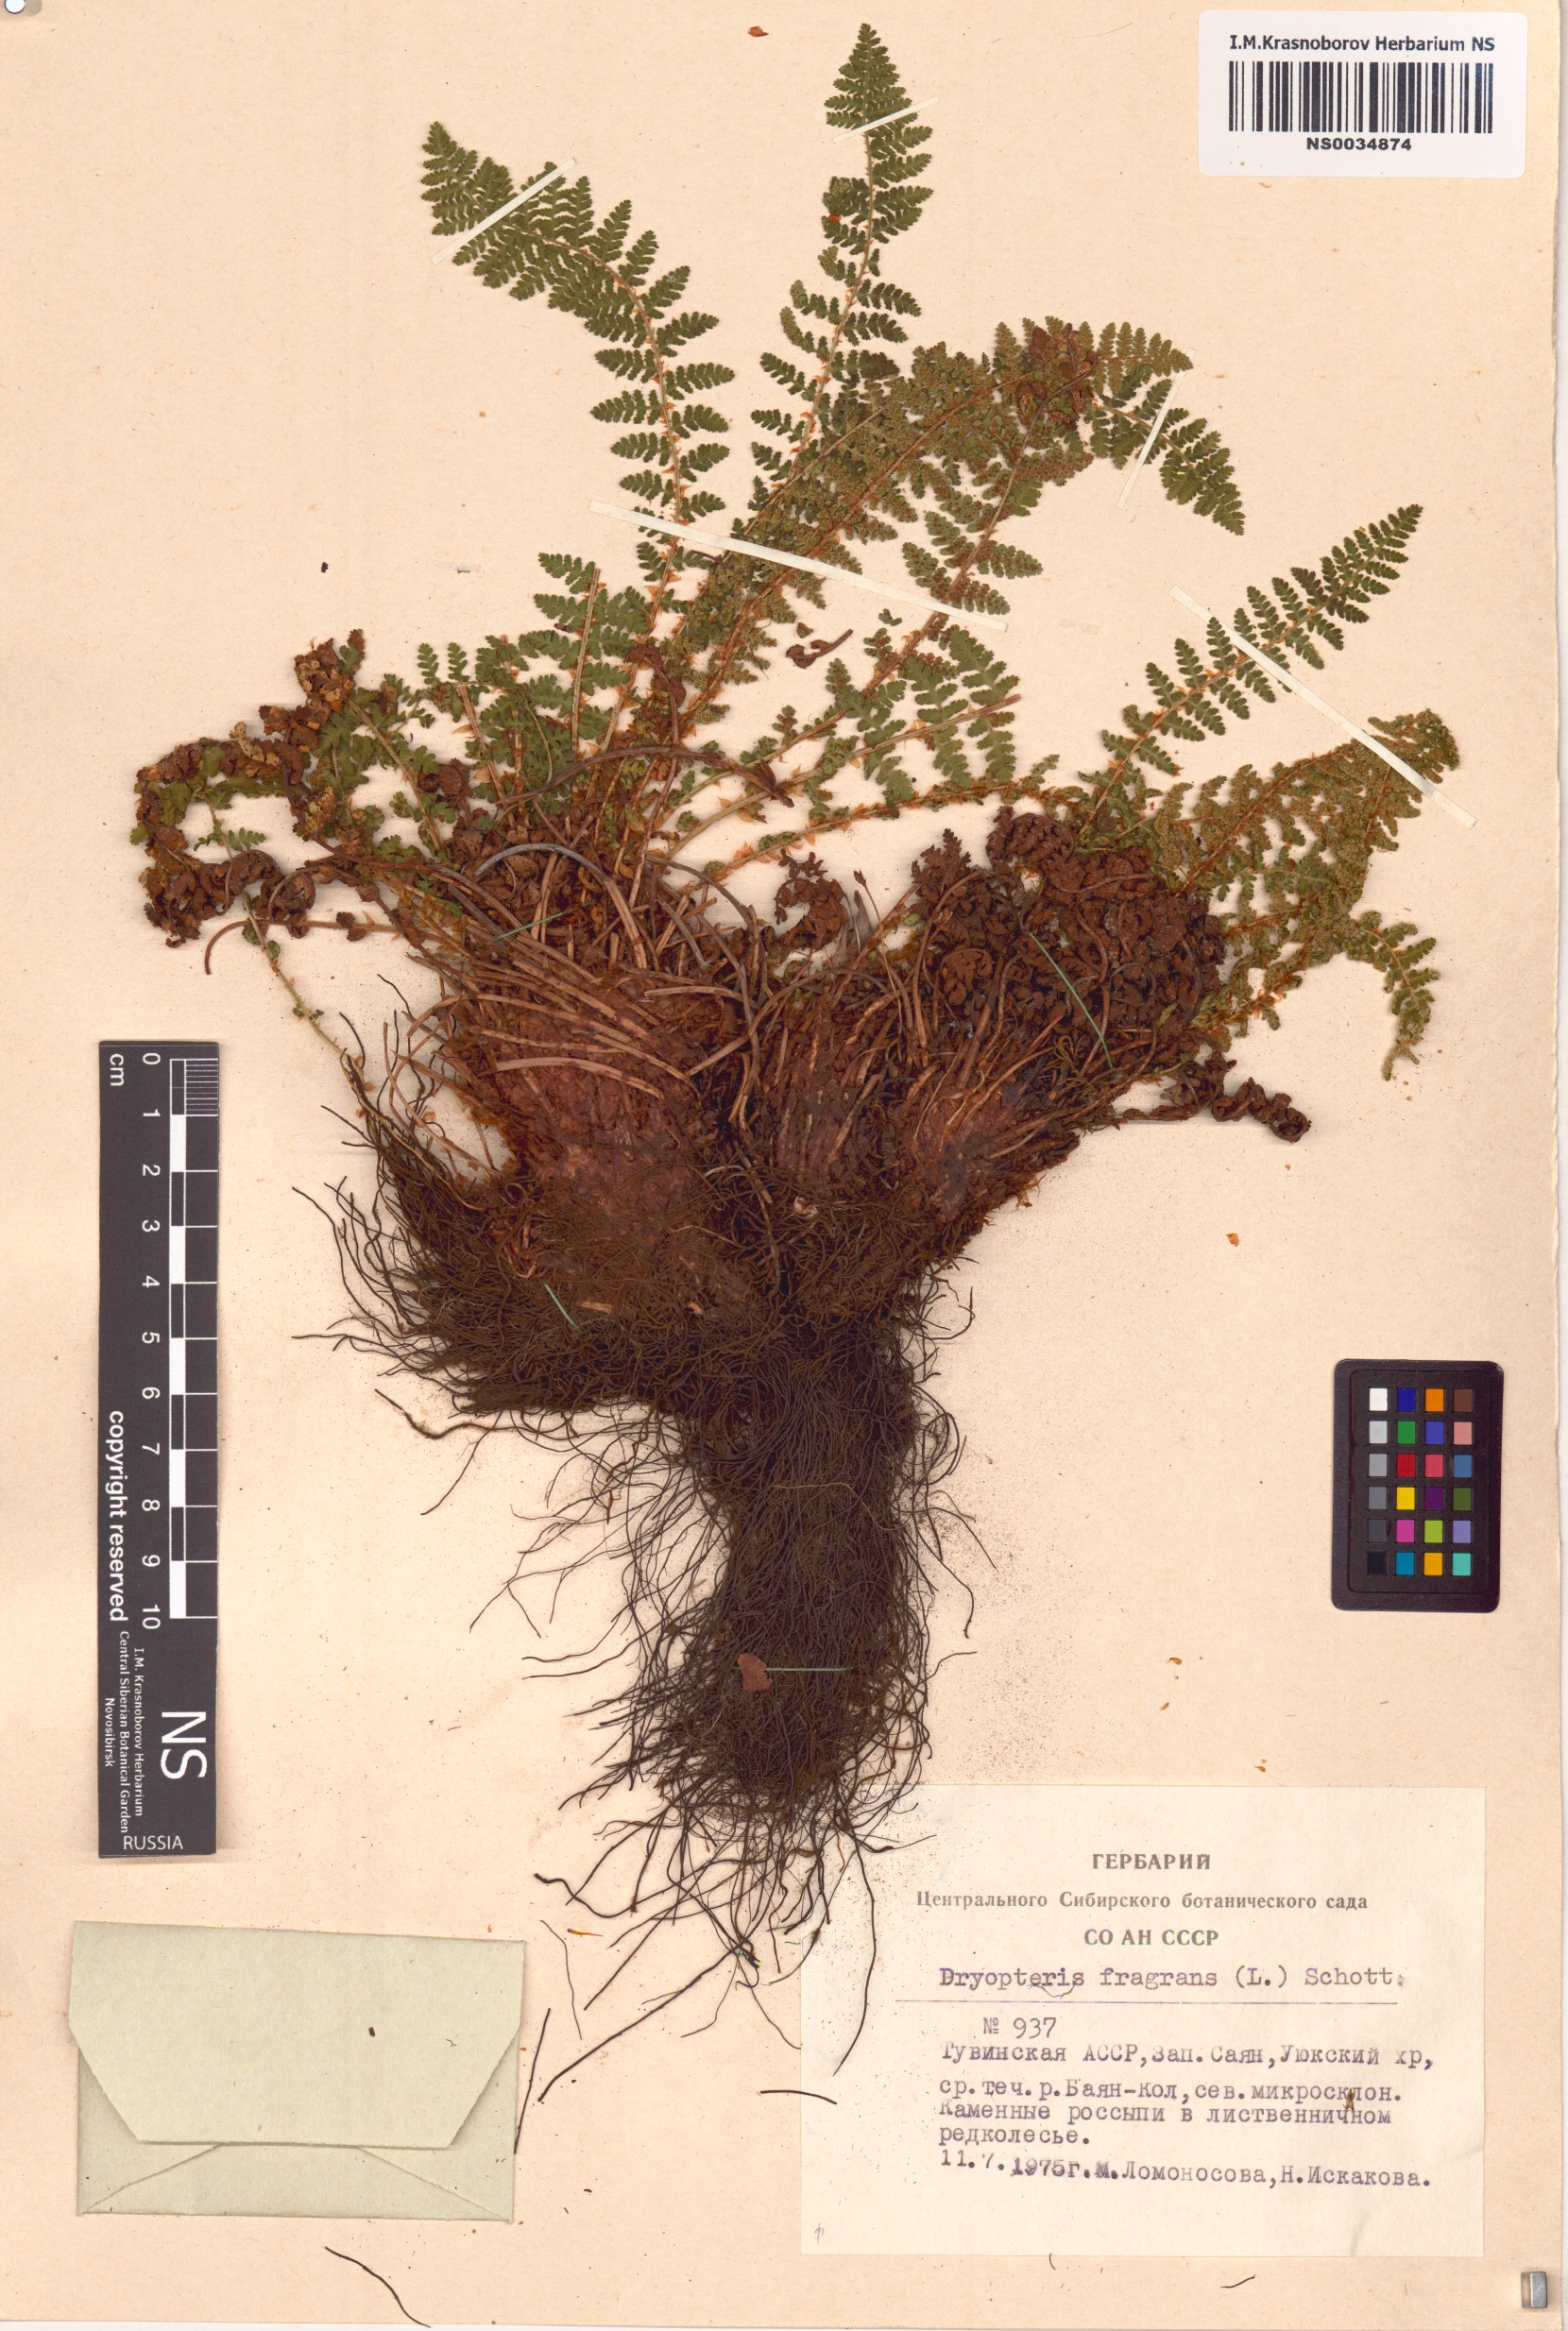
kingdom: Plantae
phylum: Tracheophyta
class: Polypodiopsida
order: Polypodiales
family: Dryopteridaceae
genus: Dryopteris
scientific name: Dryopteris fragrans
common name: Fragrant wood fern
